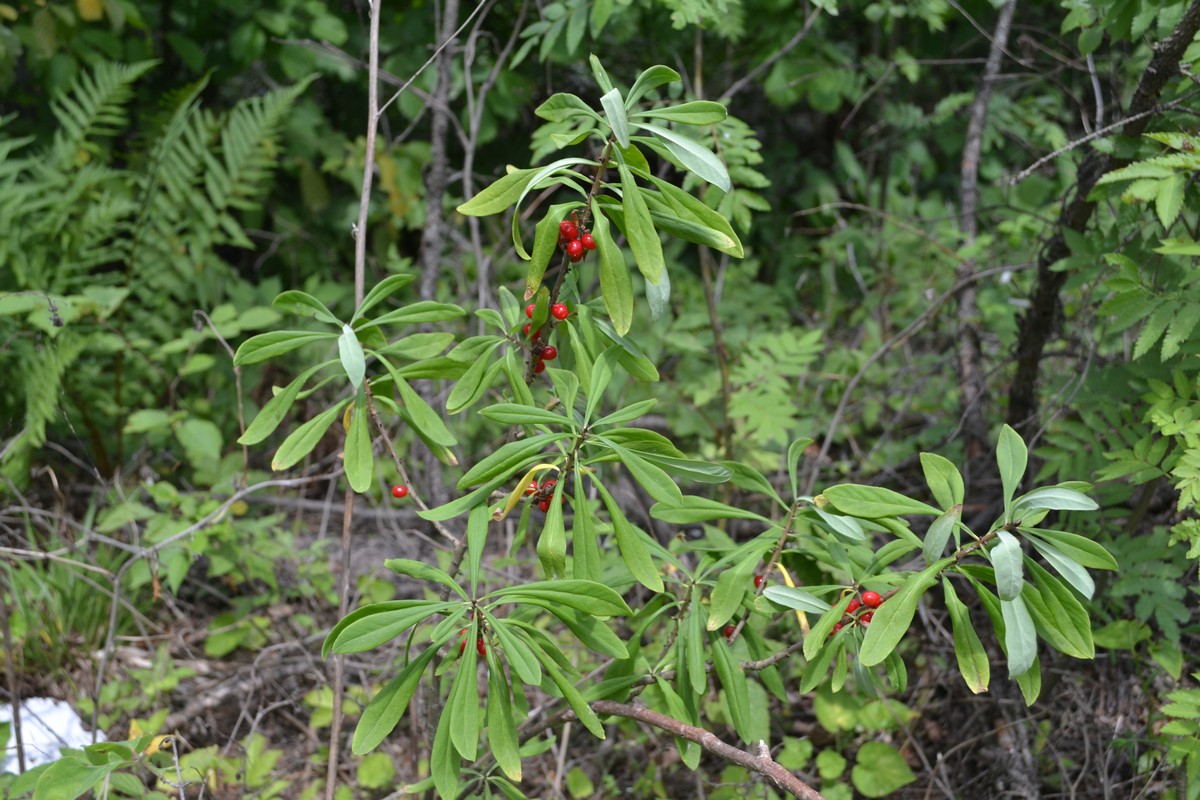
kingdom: Plantae
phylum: Tracheophyta
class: Magnoliopsida
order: Malvales
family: Thymelaeaceae
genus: Daphne
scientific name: Daphne mezereum
